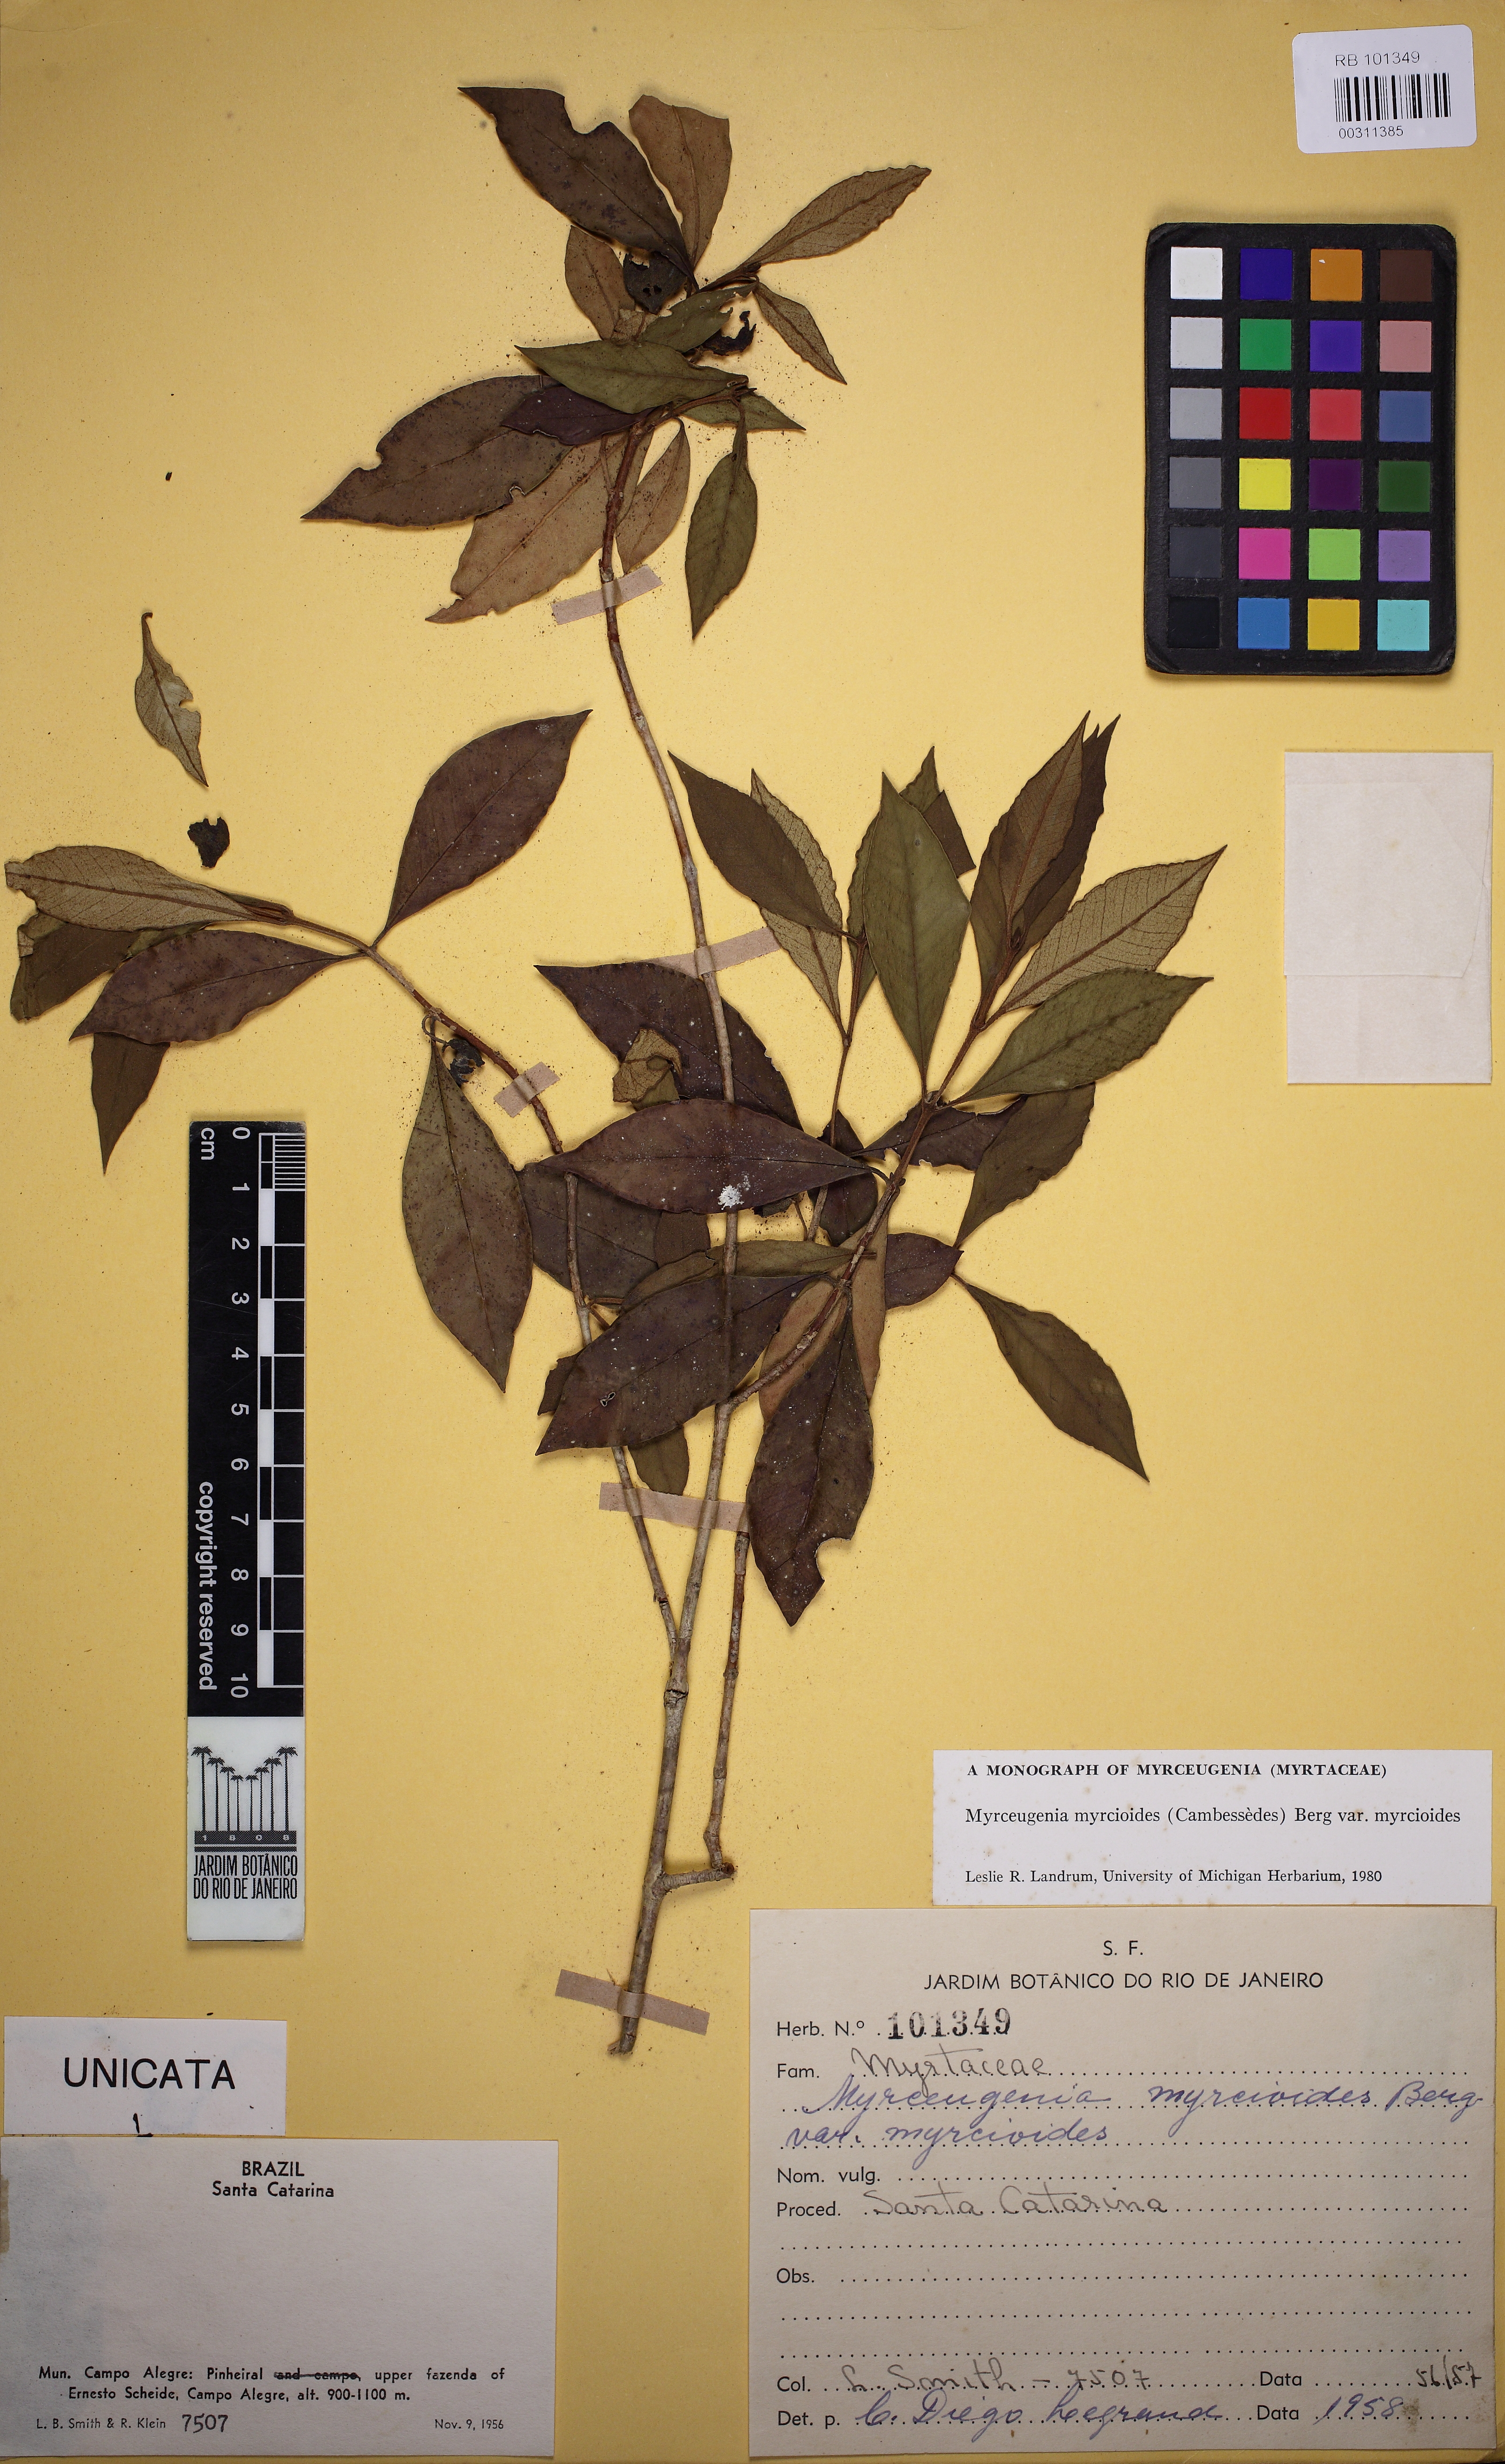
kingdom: Plantae
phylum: Tracheophyta
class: Magnoliopsida
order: Myrtales
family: Myrtaceae
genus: Myrceugenia
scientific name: Myrceugenia myrcioides
